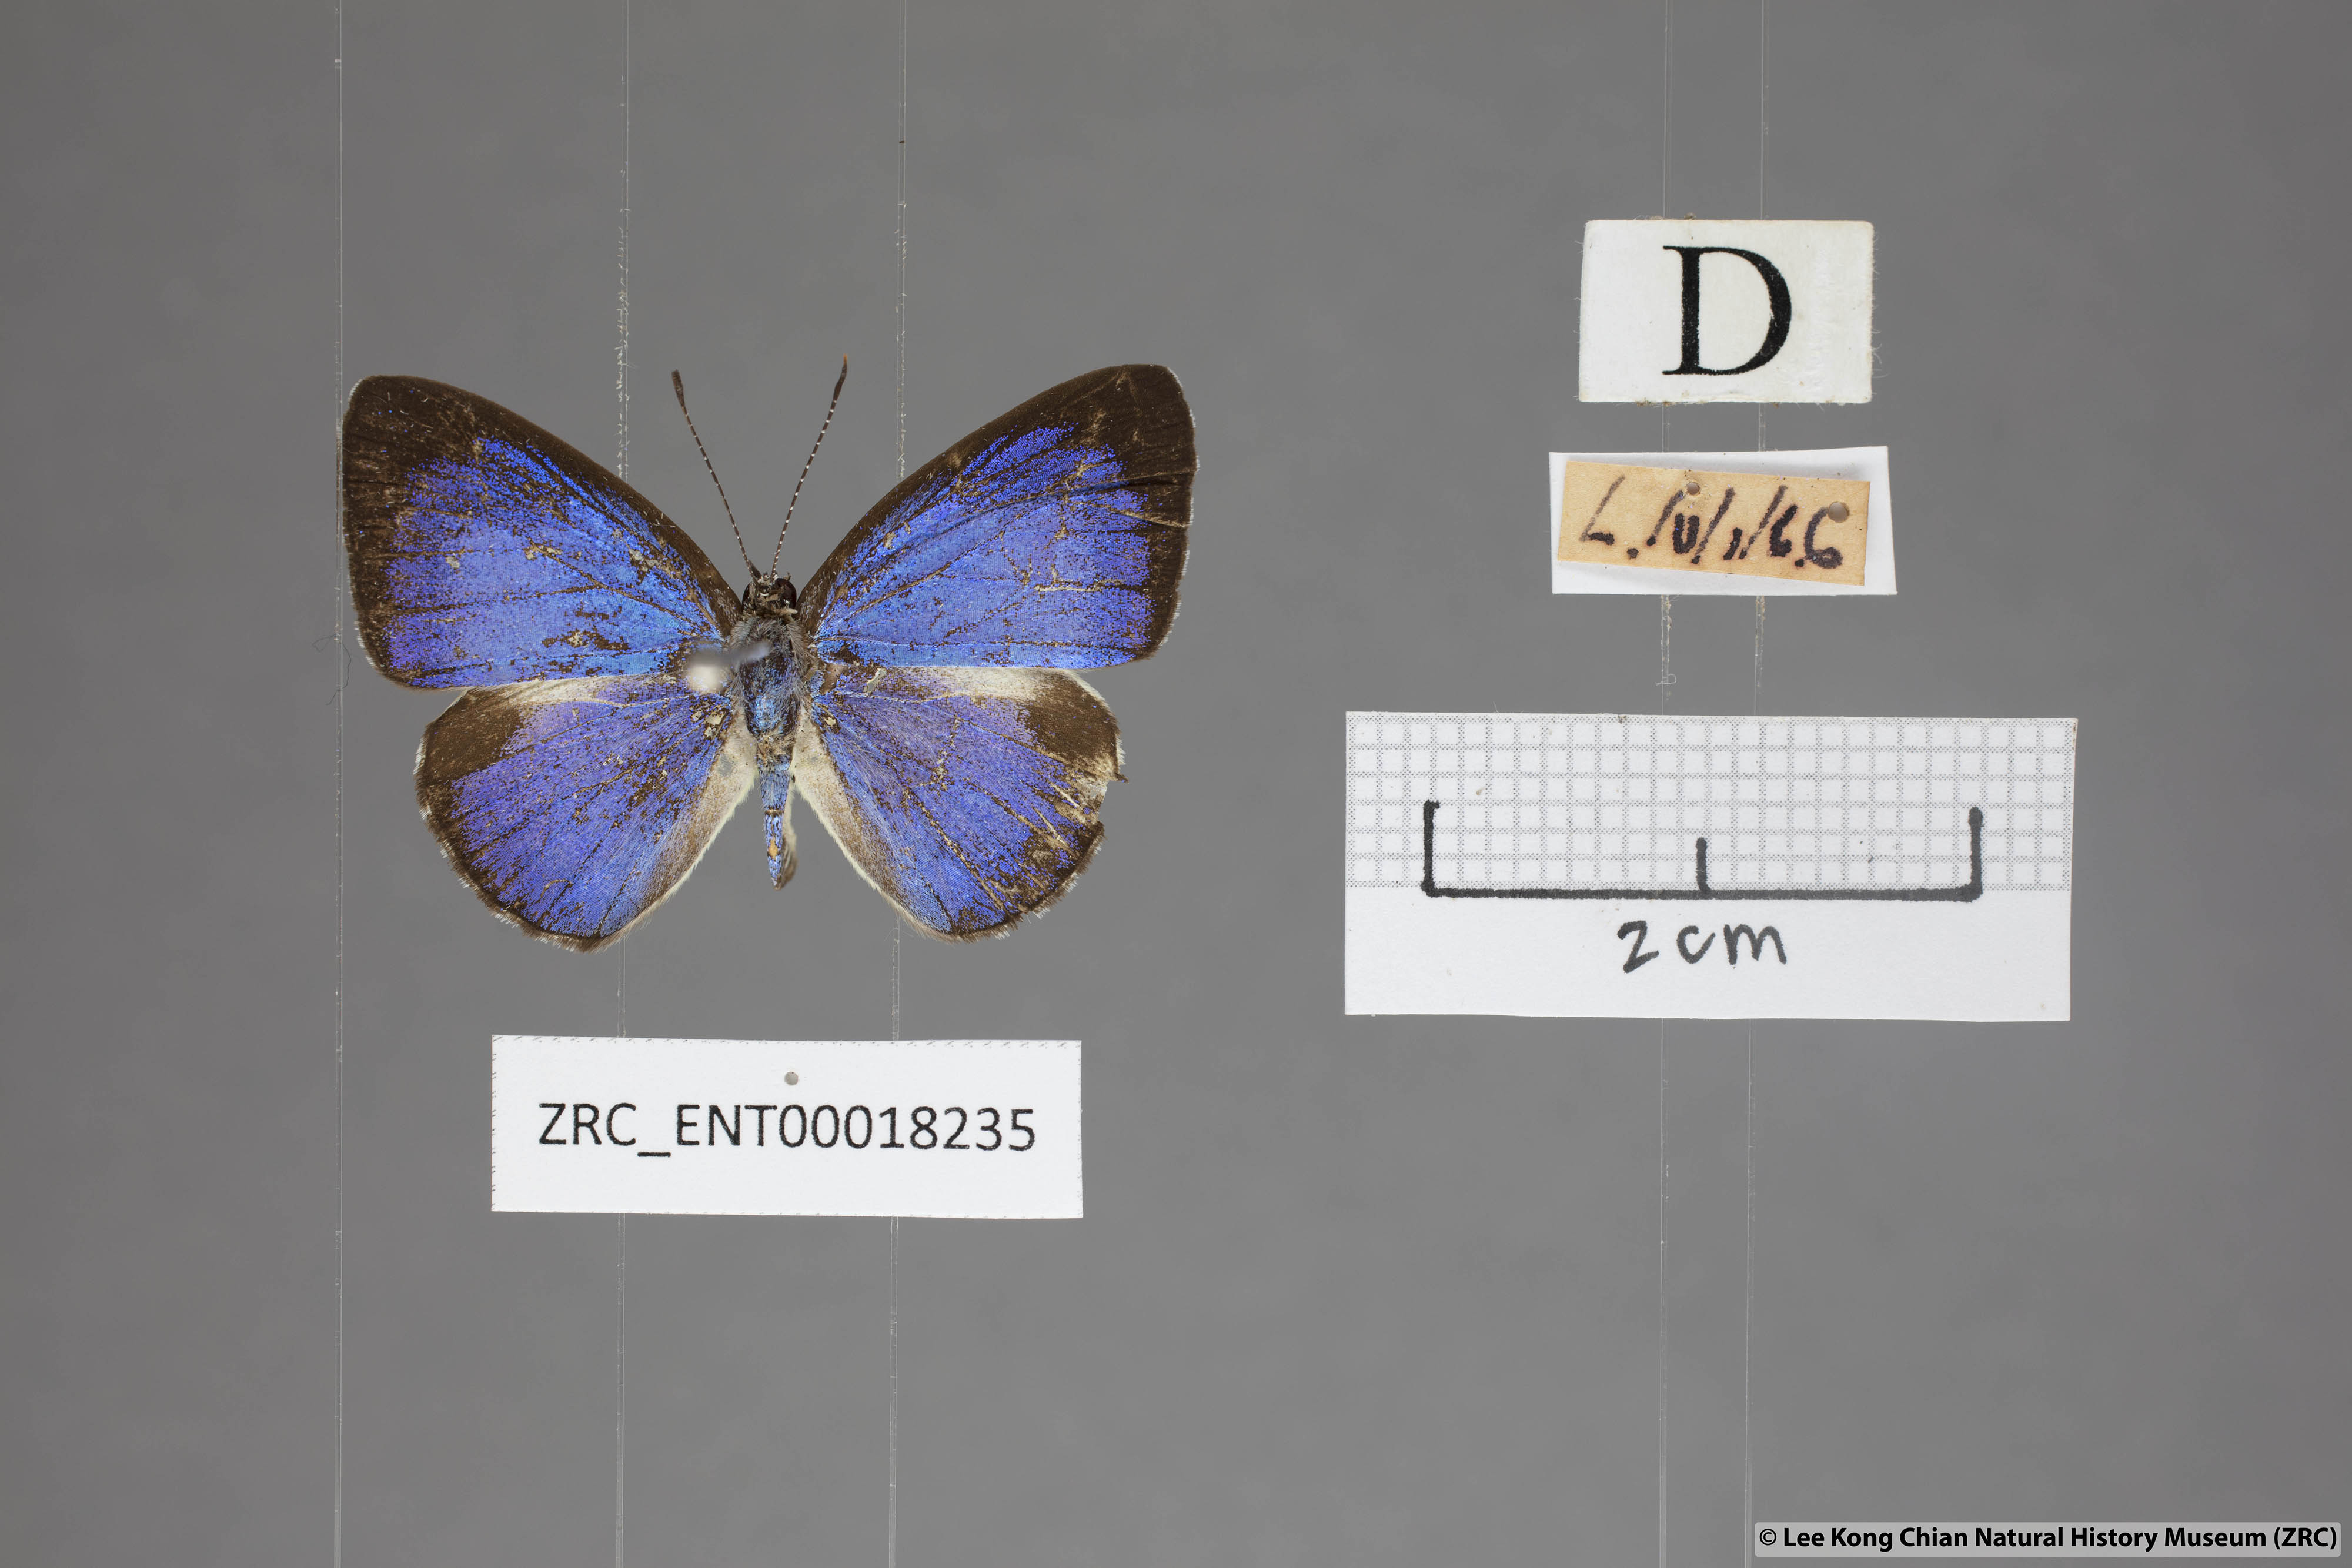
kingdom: Animalia
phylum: Arthropoda
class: Insecta
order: Lepidoptera
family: Lycaenidae
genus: Lycaenopsis
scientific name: Lycaenopsis haraldus
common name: Felder's hedge blue
